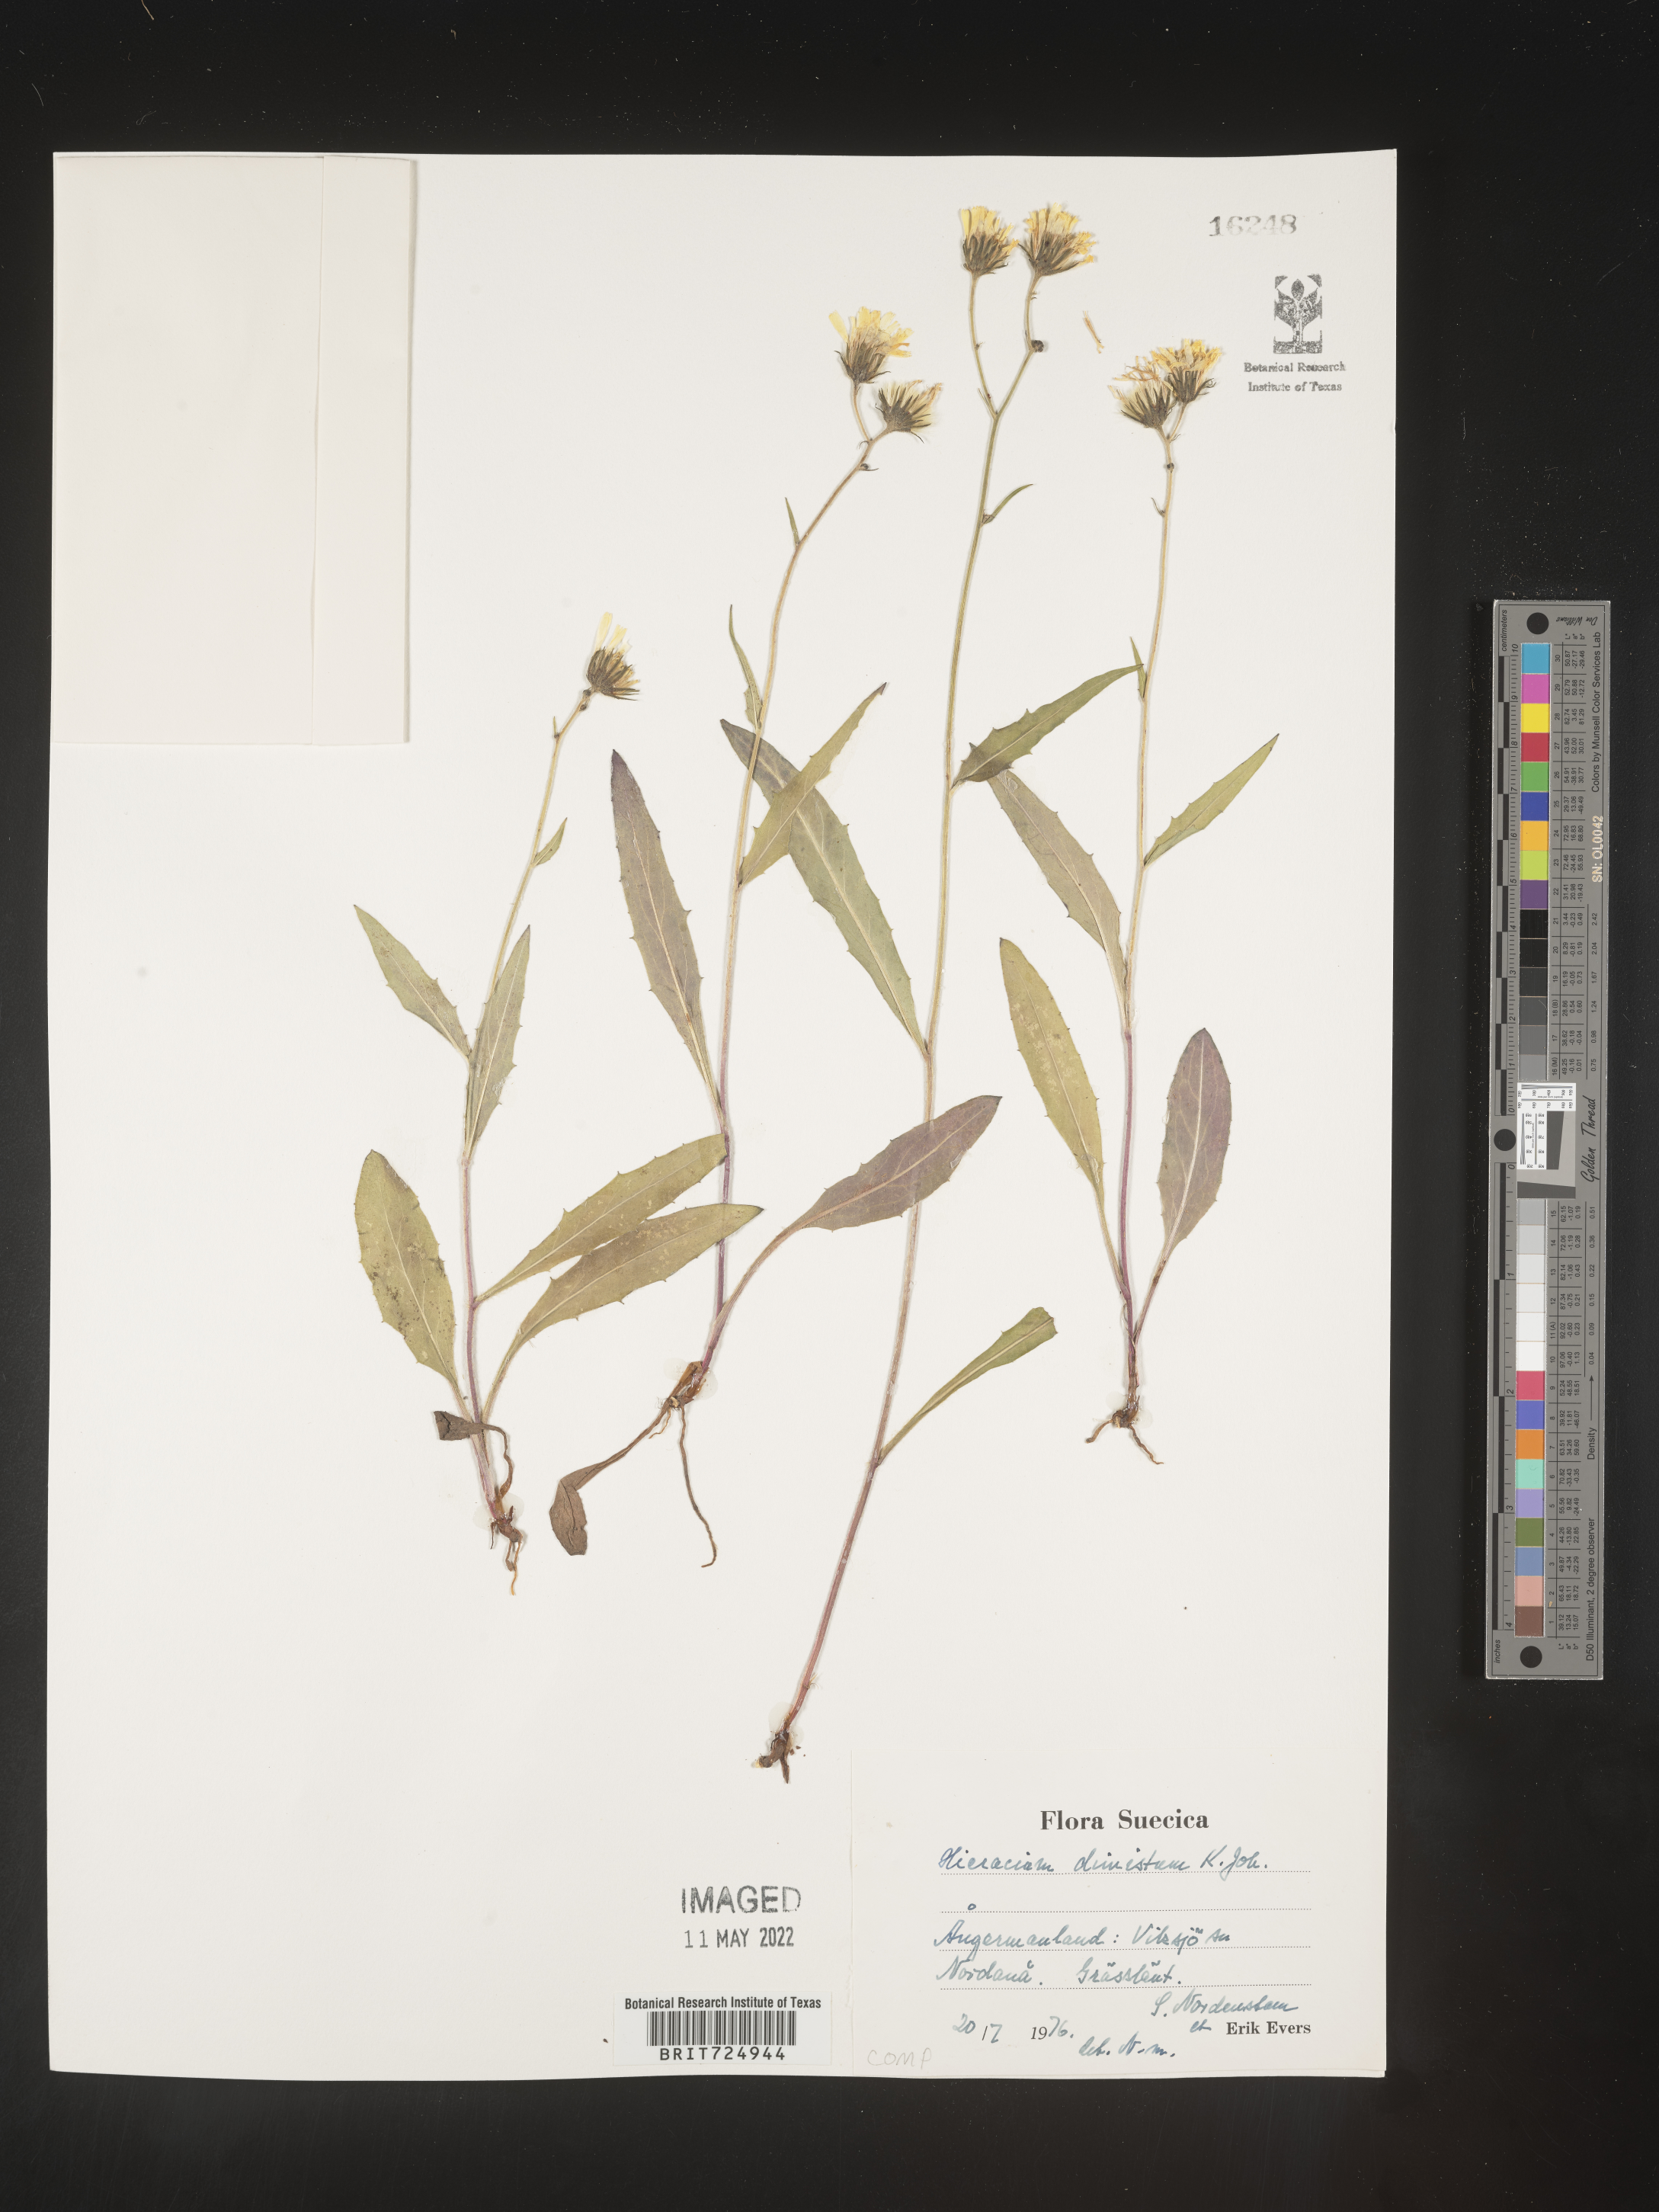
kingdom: Plantae
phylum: Tracheophyta
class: Magnoliopsida
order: Asterales
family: Asteraceae
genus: Hieracium
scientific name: Hieracium
